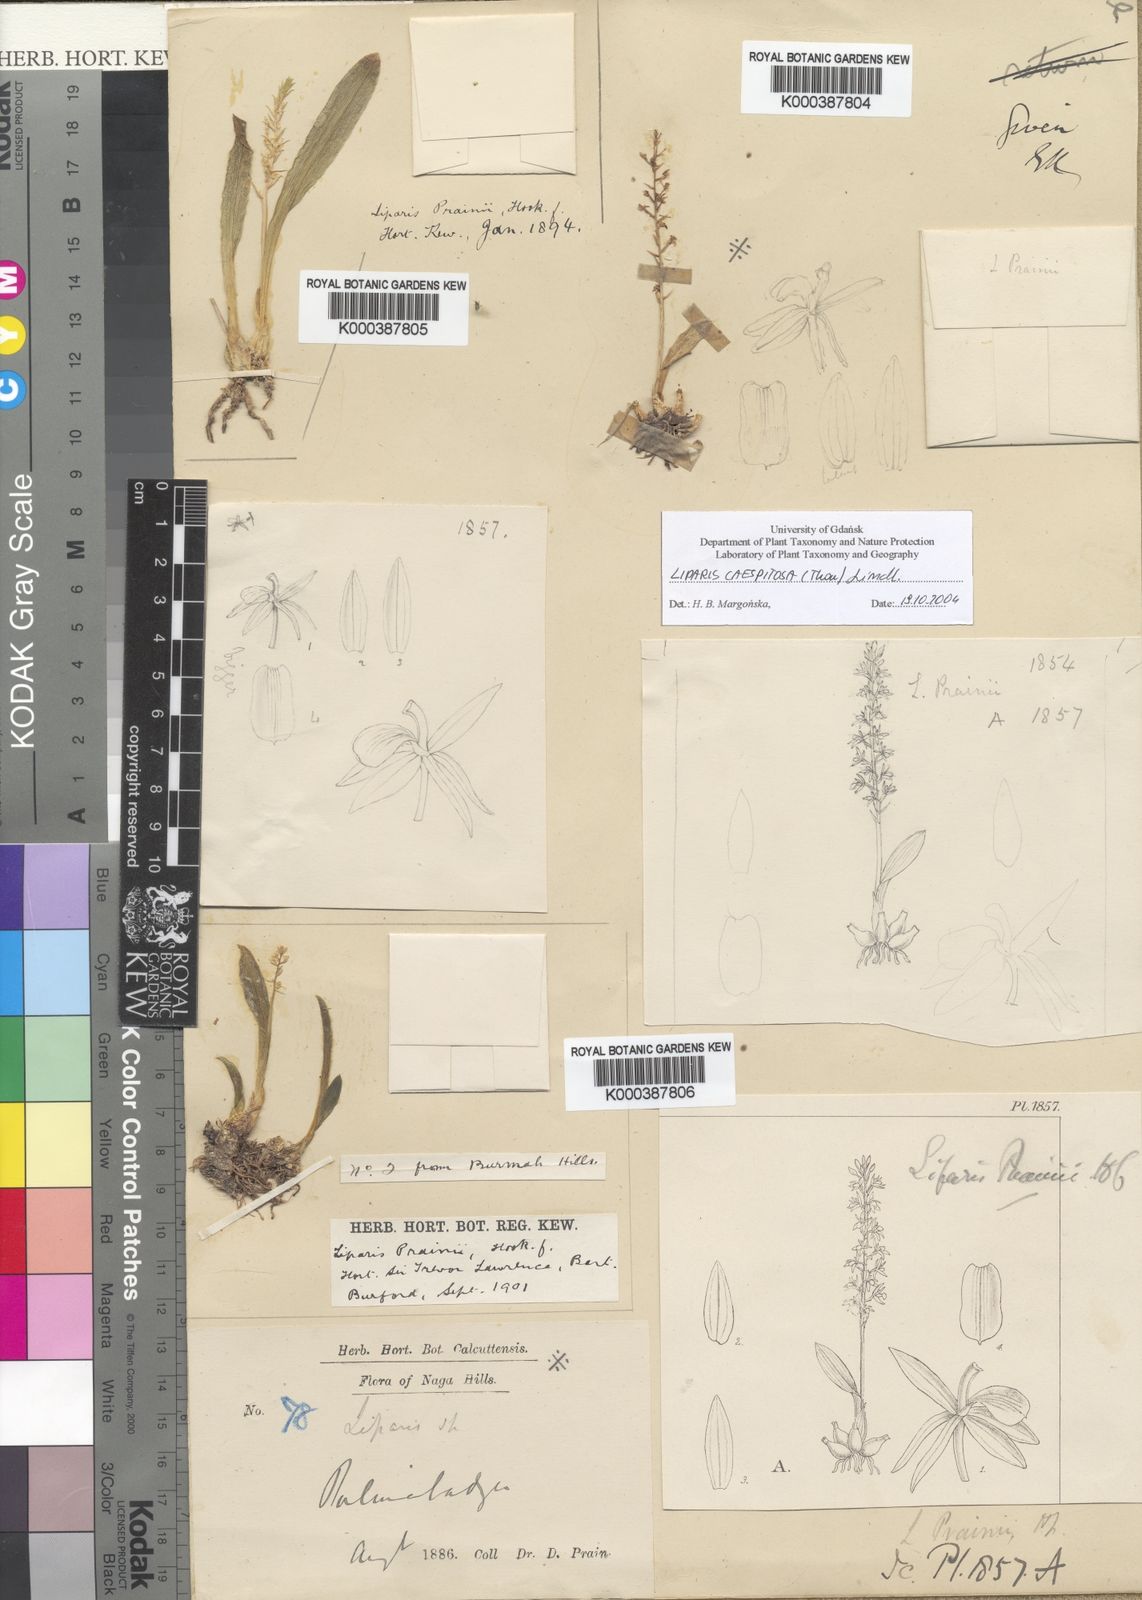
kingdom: Plantae
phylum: Tracheophyta
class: Liliopsida
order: Asparagales
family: Orchidaceae
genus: Liparis
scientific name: Liparis
